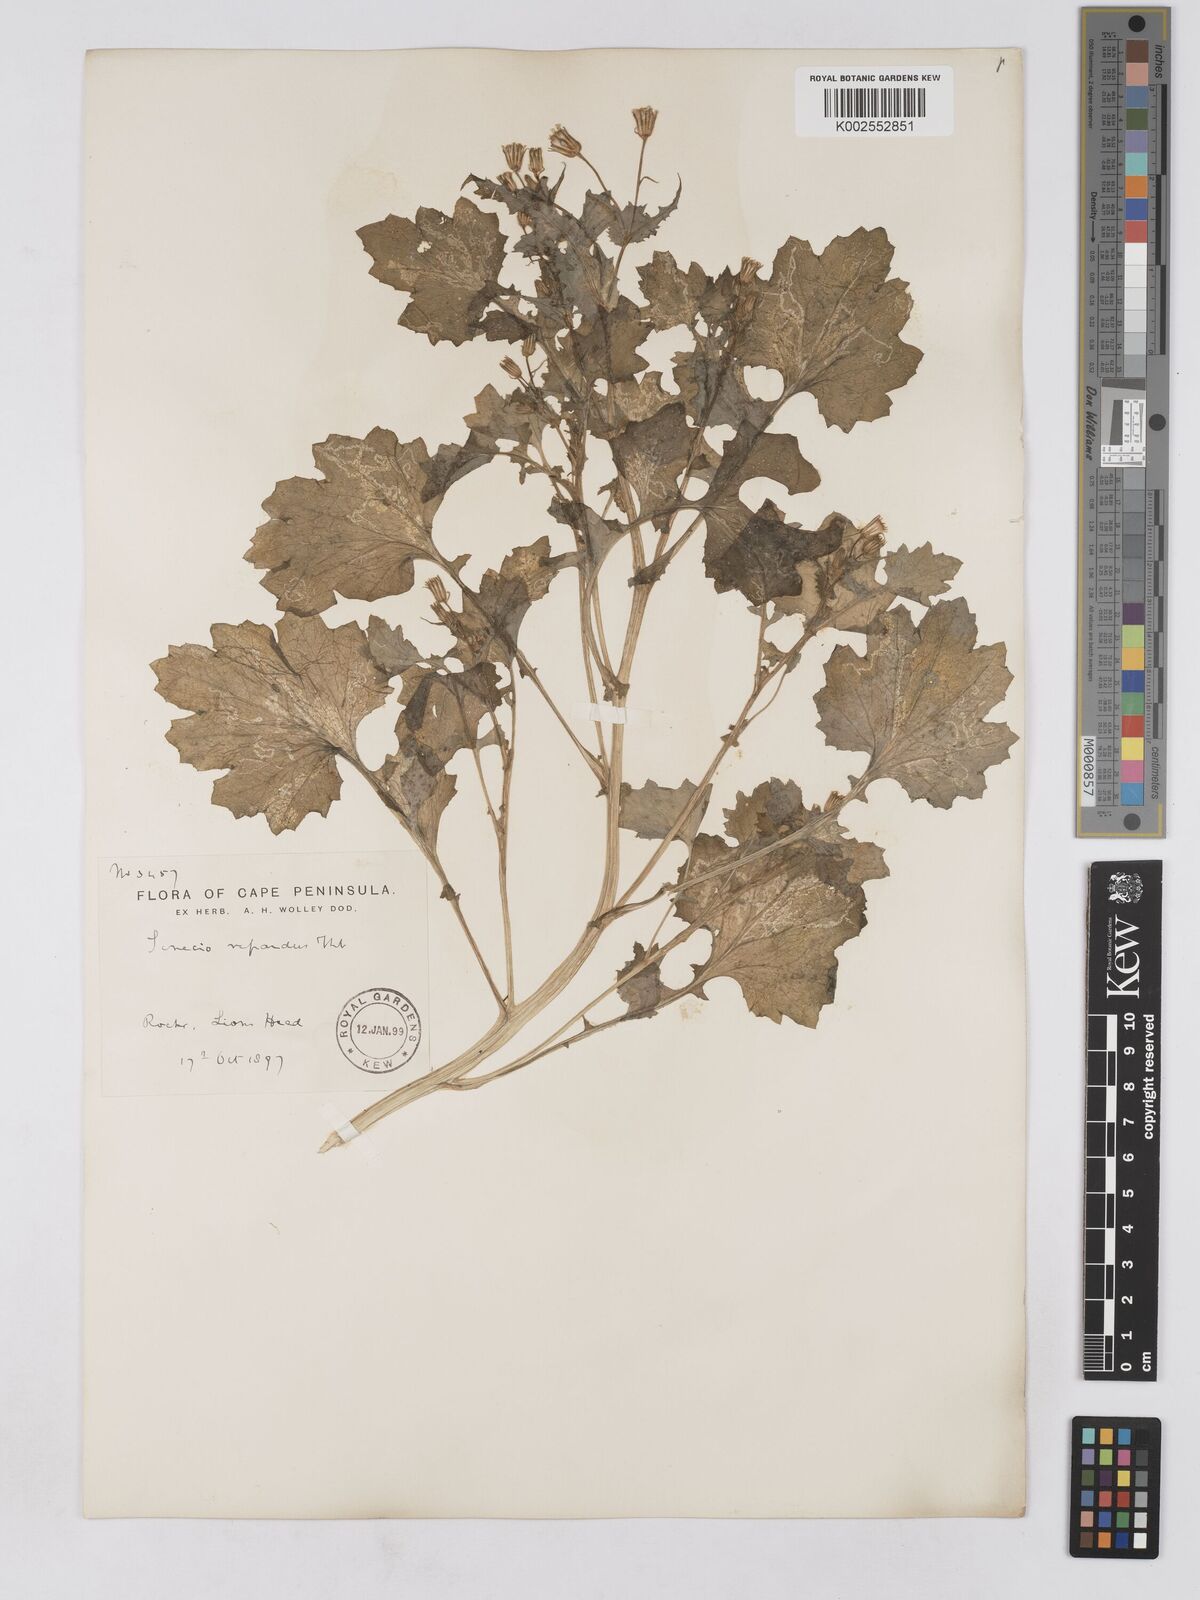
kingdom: Plantae
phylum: Tracheophyta
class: Magnoliopsida
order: Asterales
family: Asteraceae
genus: Senecio
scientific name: Senecio repandus
